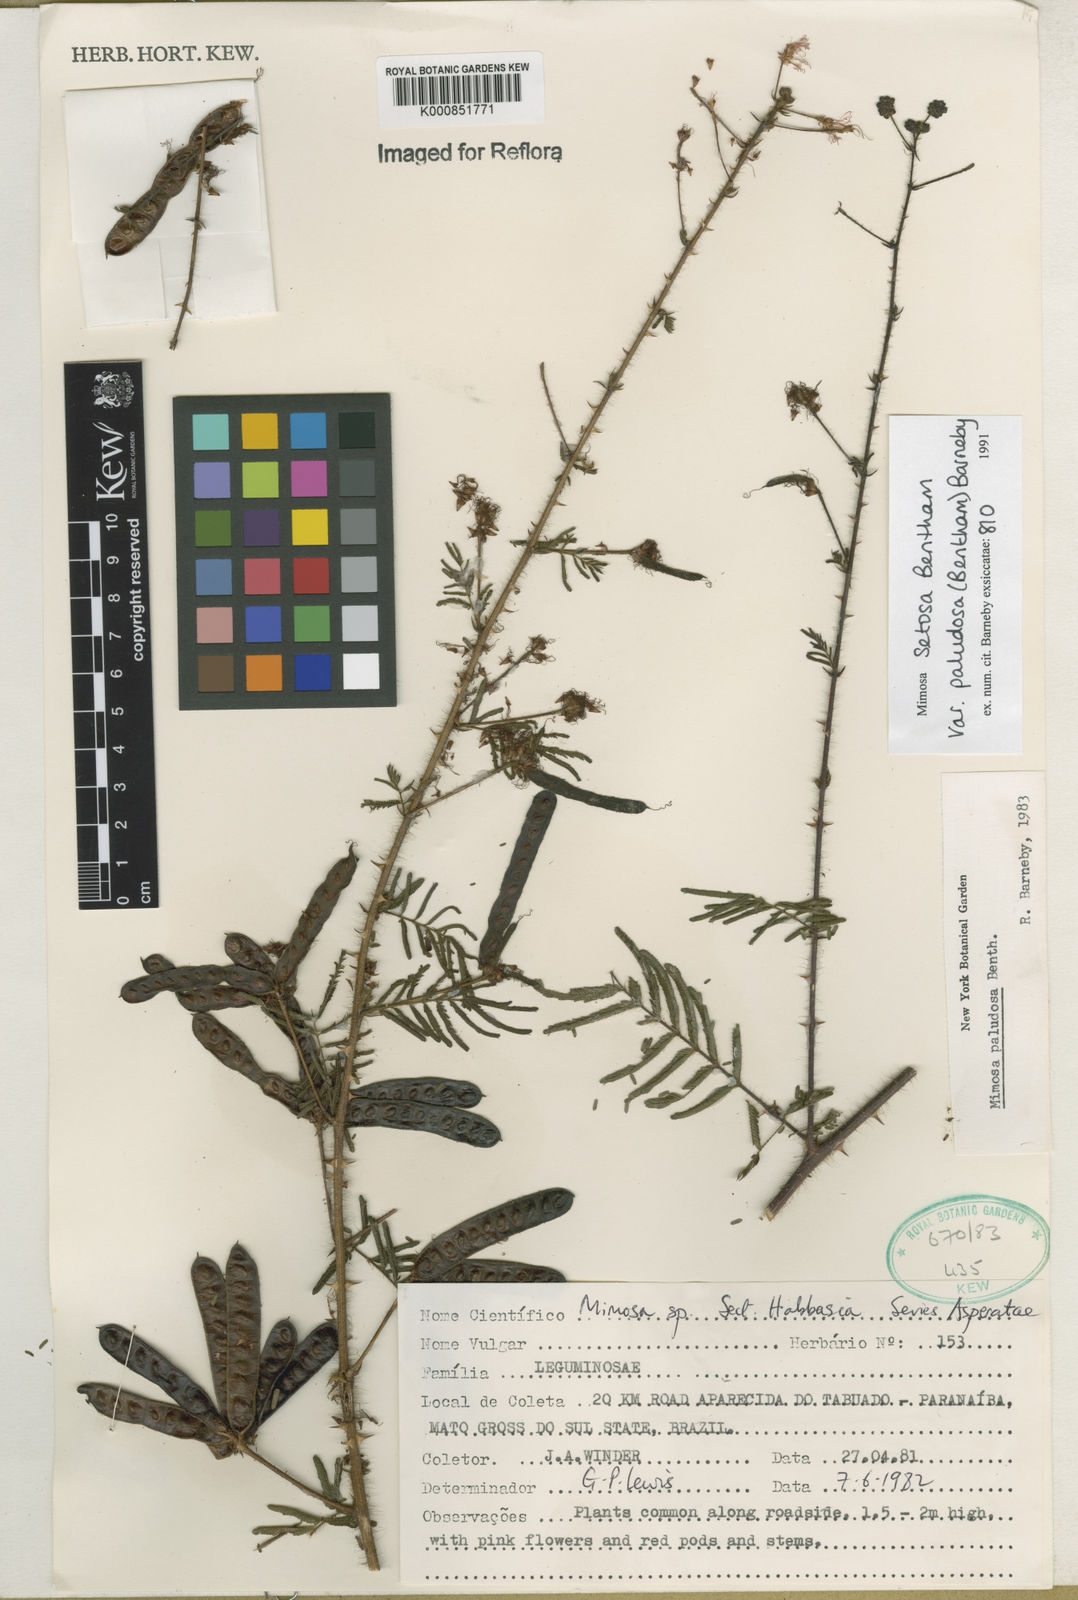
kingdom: Plantae
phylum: Tracheophyta
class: Magnoliopsida
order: Fabales
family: Fabaceae
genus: Mimosa
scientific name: Mimosa paludosa
